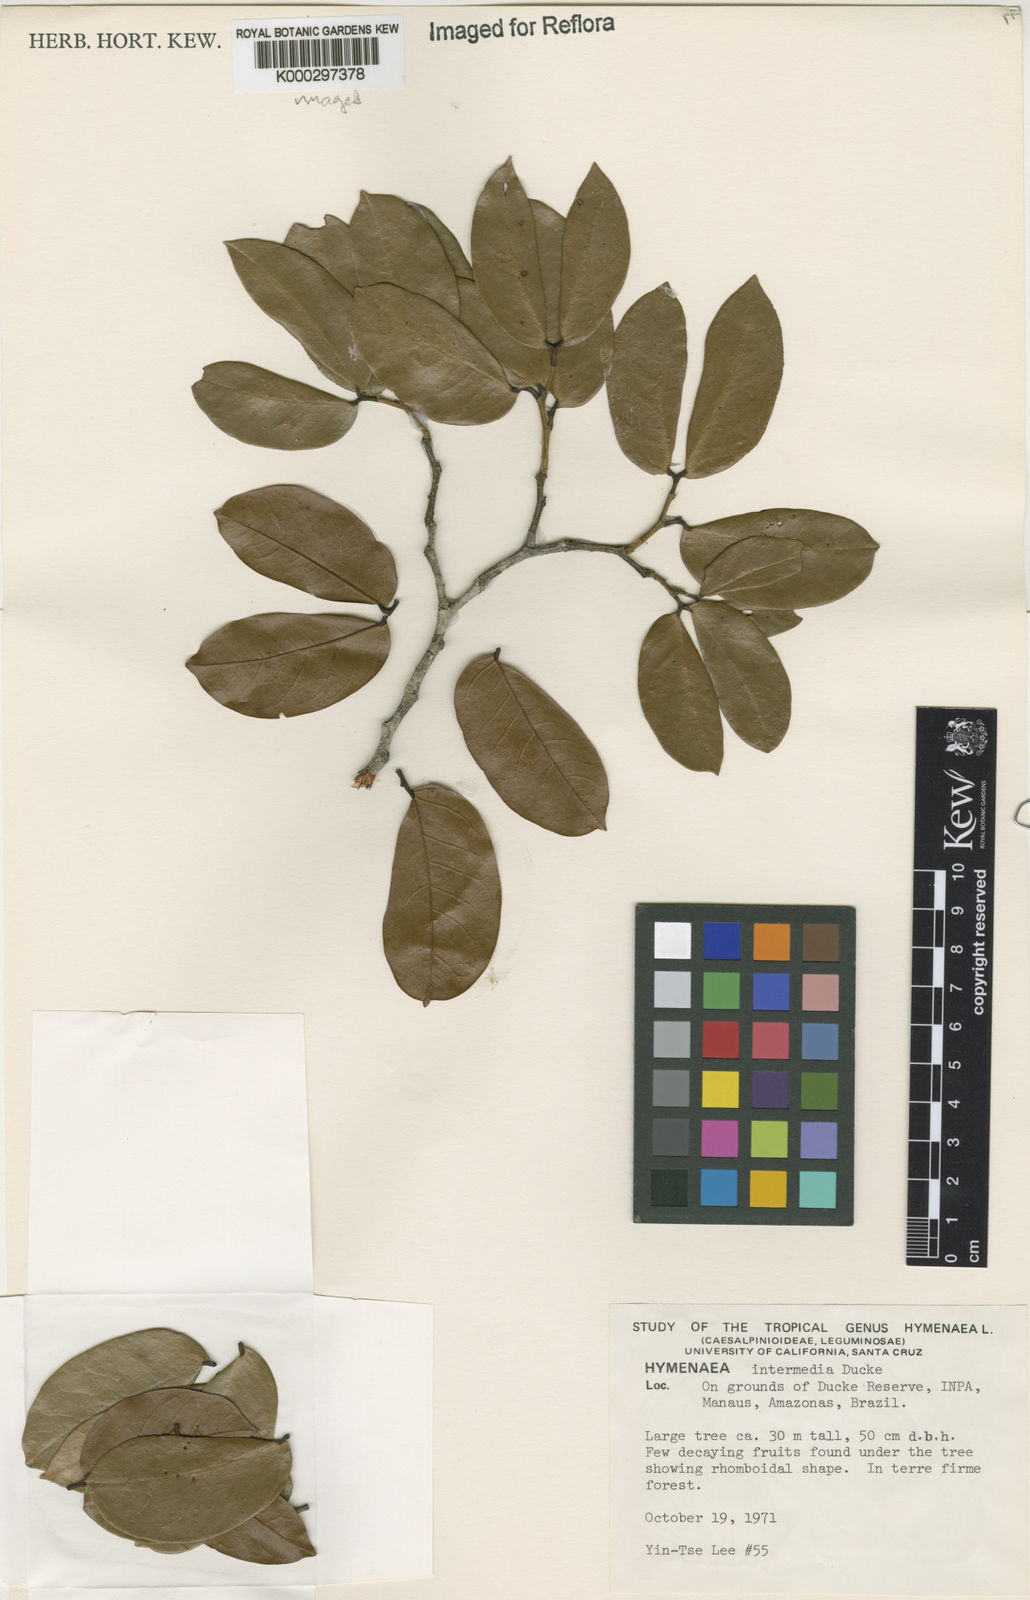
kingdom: Plantae
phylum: Tracheophyta
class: Magnoliopsida
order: Fabales
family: Fabaceae
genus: Hymenaea
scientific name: Hymenaea intermedia
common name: South american copal
